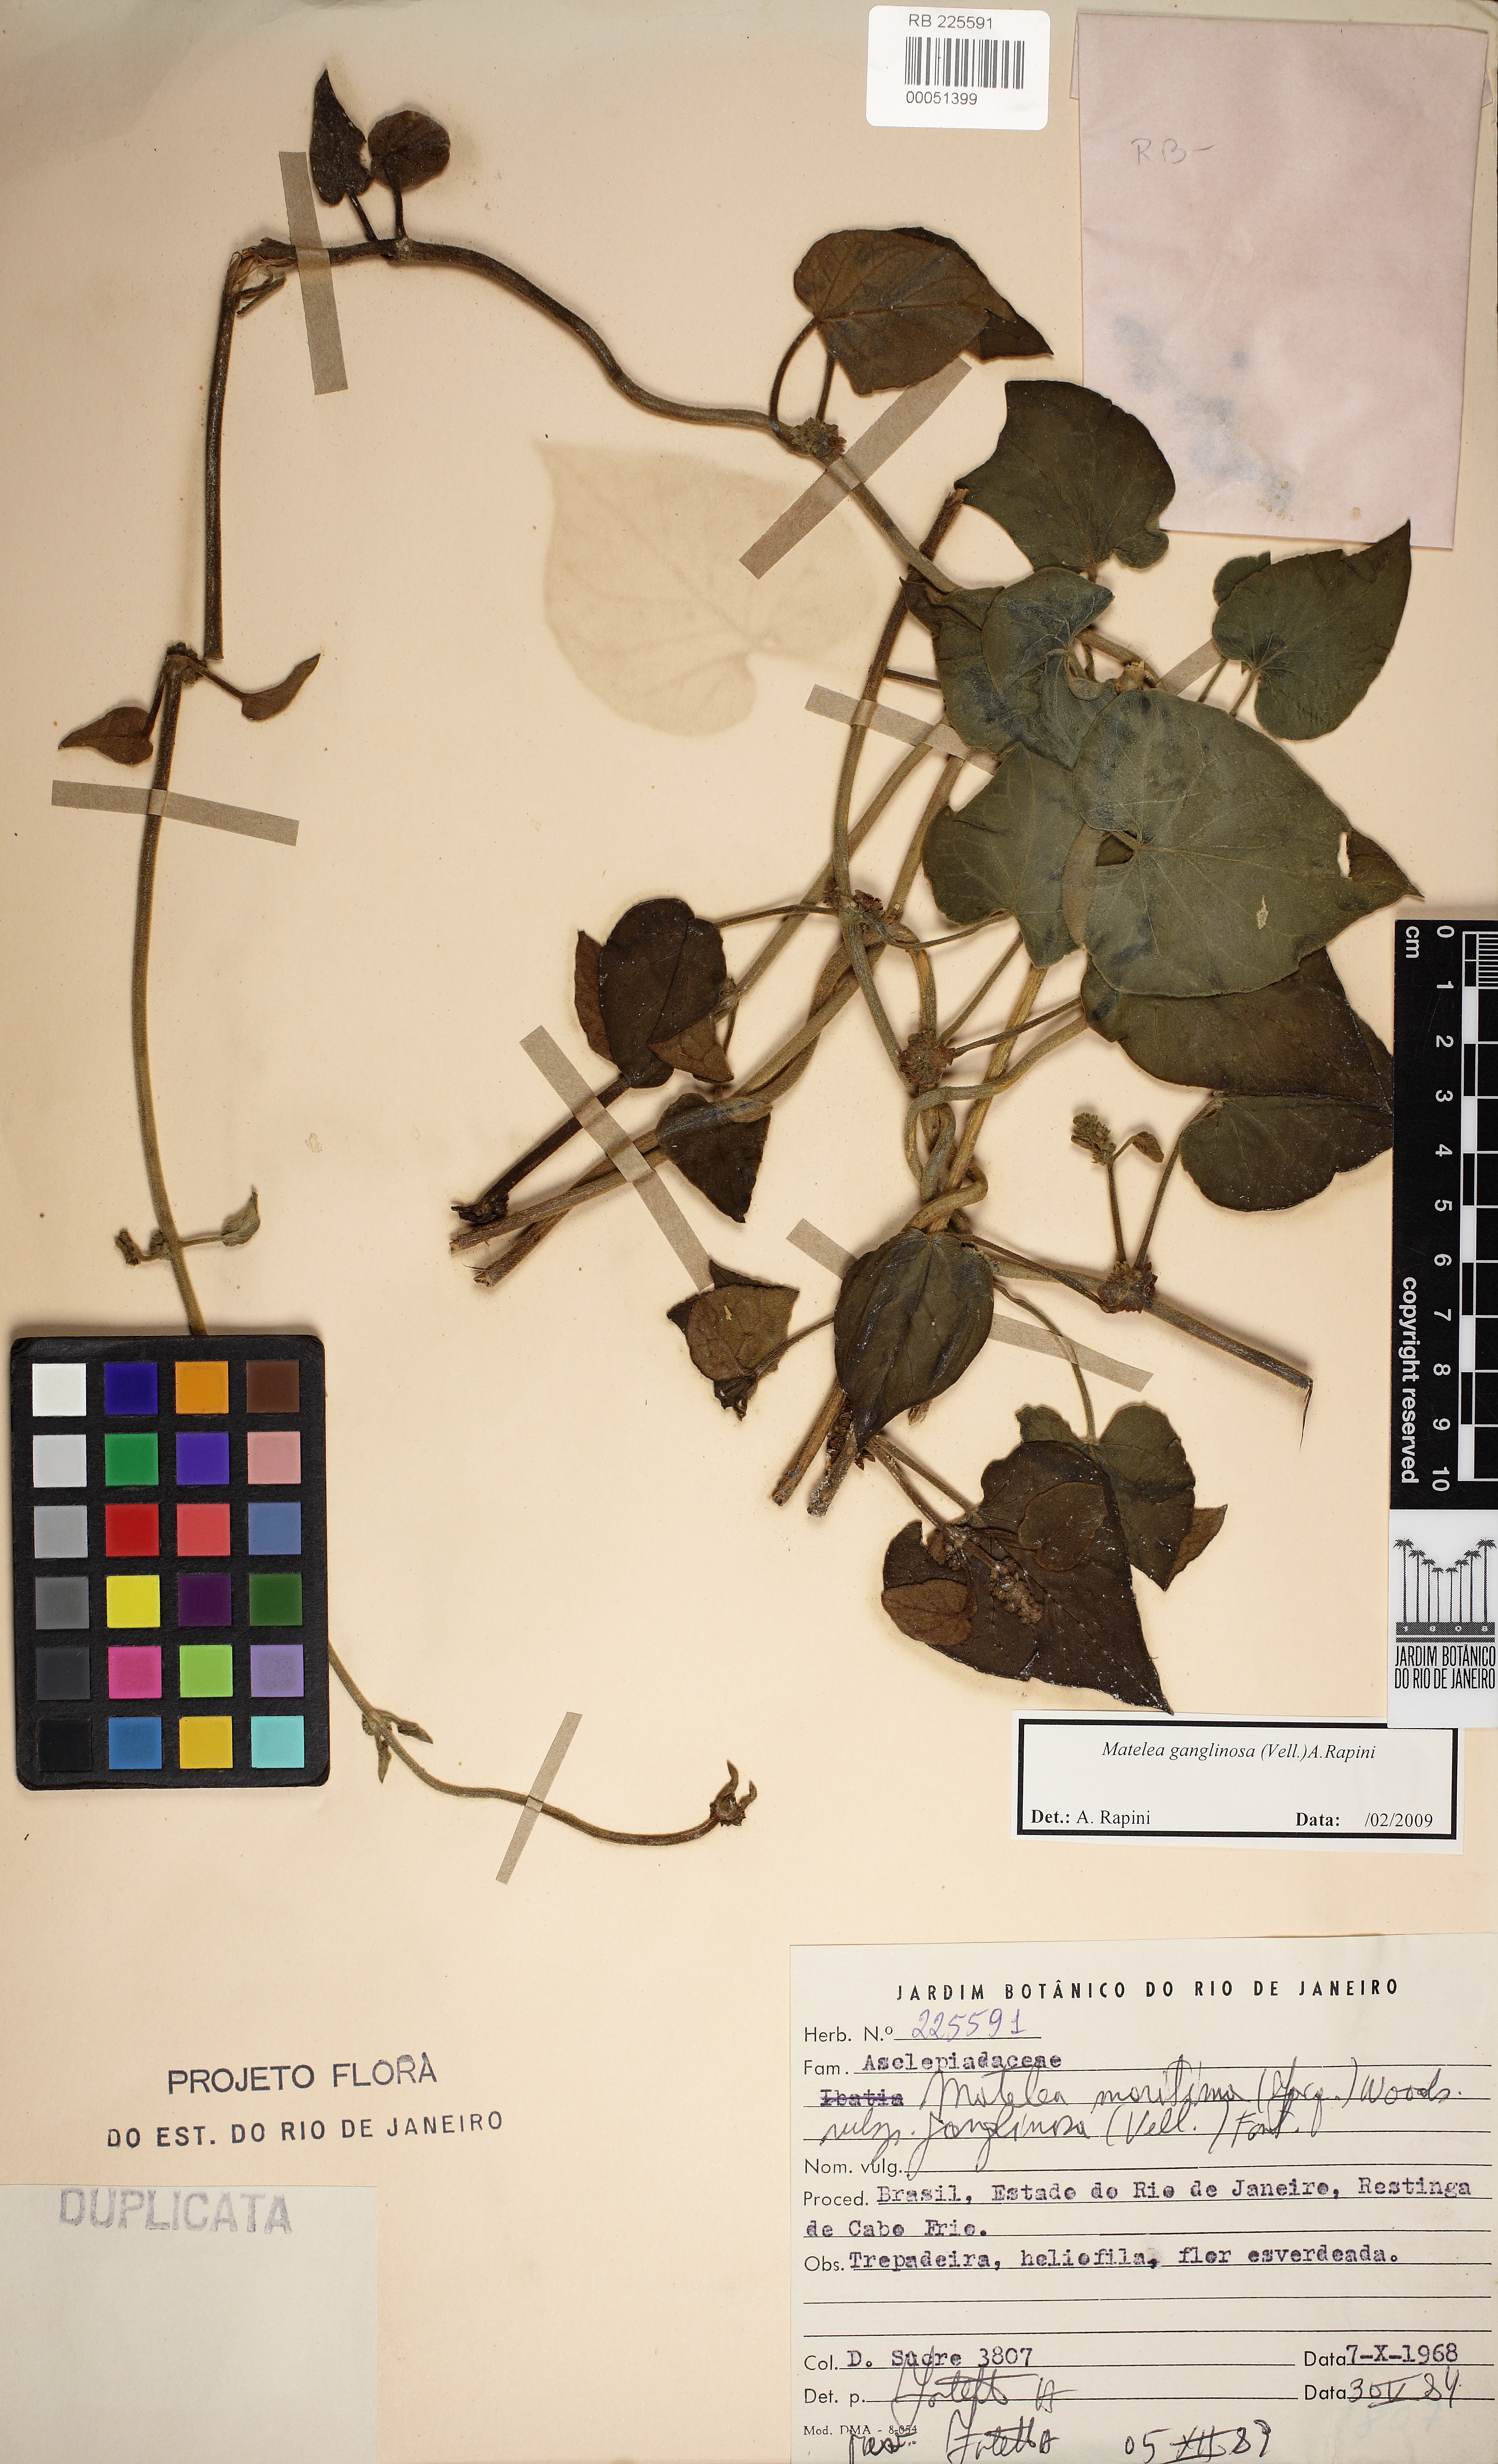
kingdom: Plantae
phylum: Tracheophyta
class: Magnoliopsida
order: Gentianales
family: Apocynaceae
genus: Ibatia
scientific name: Ibatia ganglinosa
